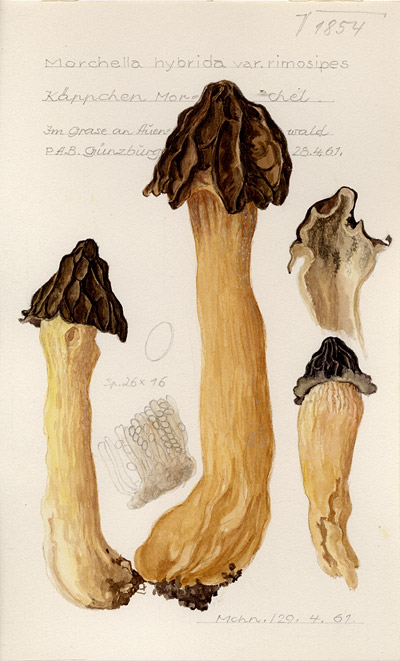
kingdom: Fungi
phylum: Ascomycota
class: Pezizomycetes
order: Pezizales
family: Morchellaceae
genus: Morchella
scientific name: Morchella semilibera
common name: Semifree morel
